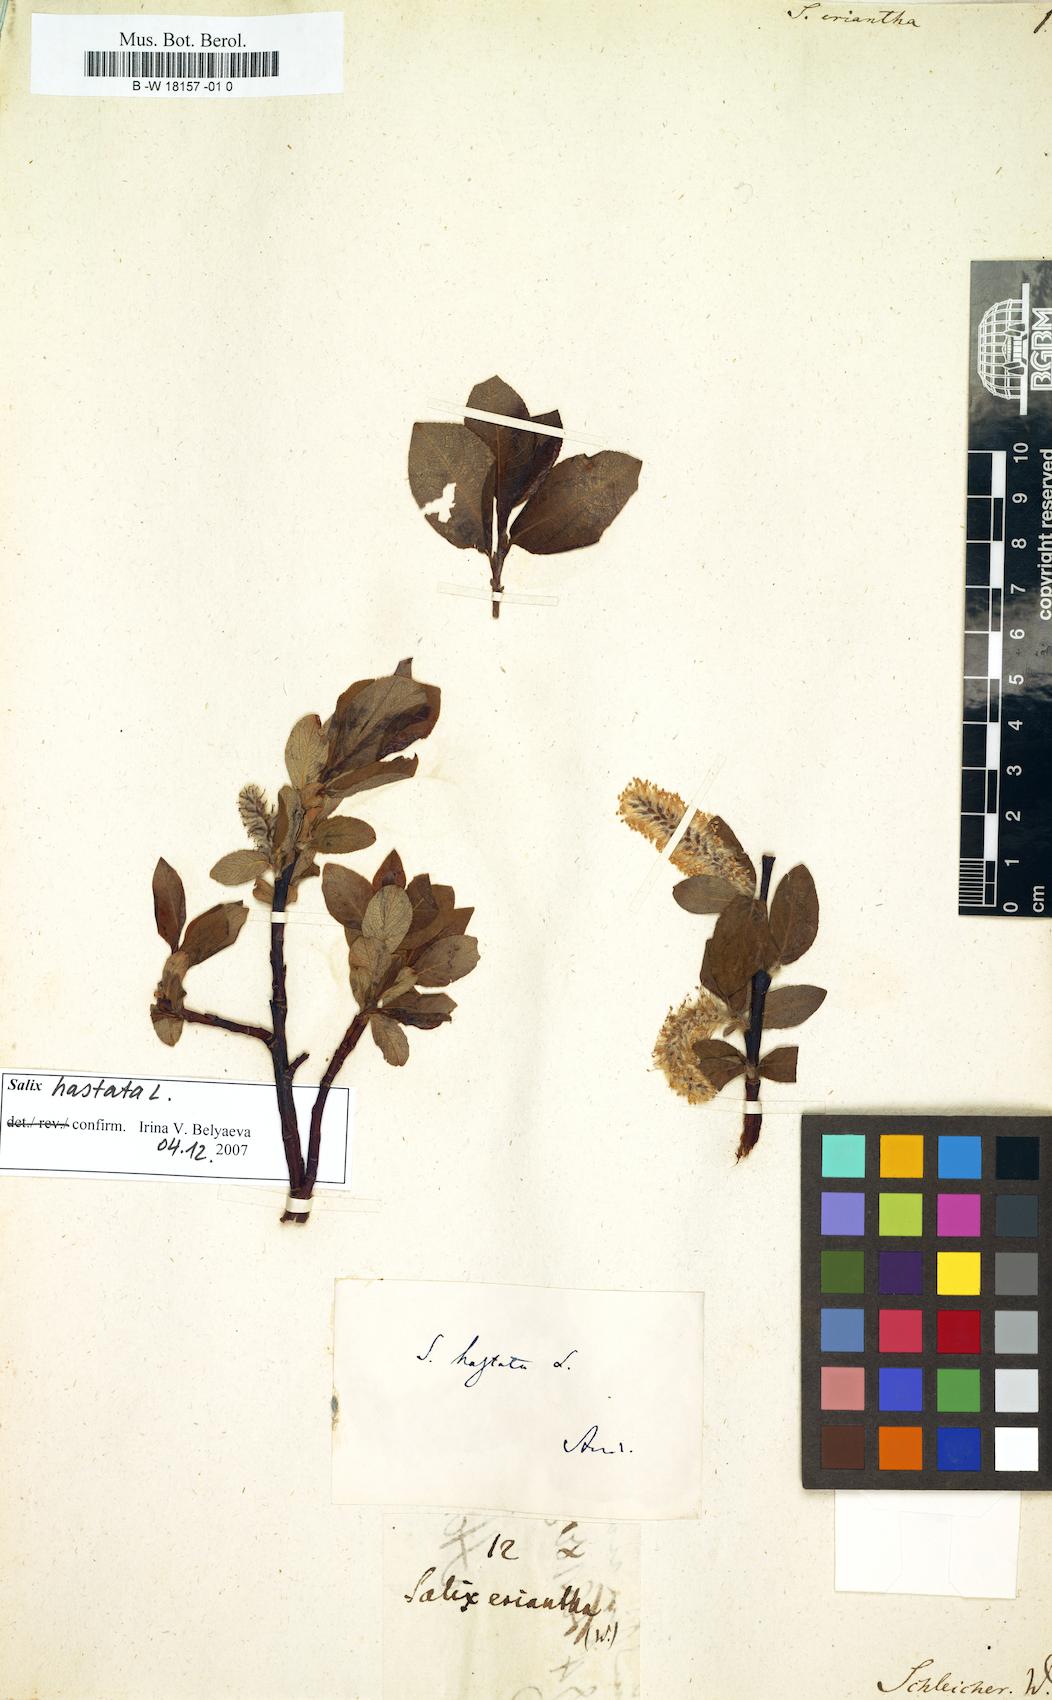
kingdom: Plantae
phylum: Tracheophyta
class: Magnoliopsida
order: Malpighiales
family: Salicaceae
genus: Salix
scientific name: Salix hastata
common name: Halberd willow
